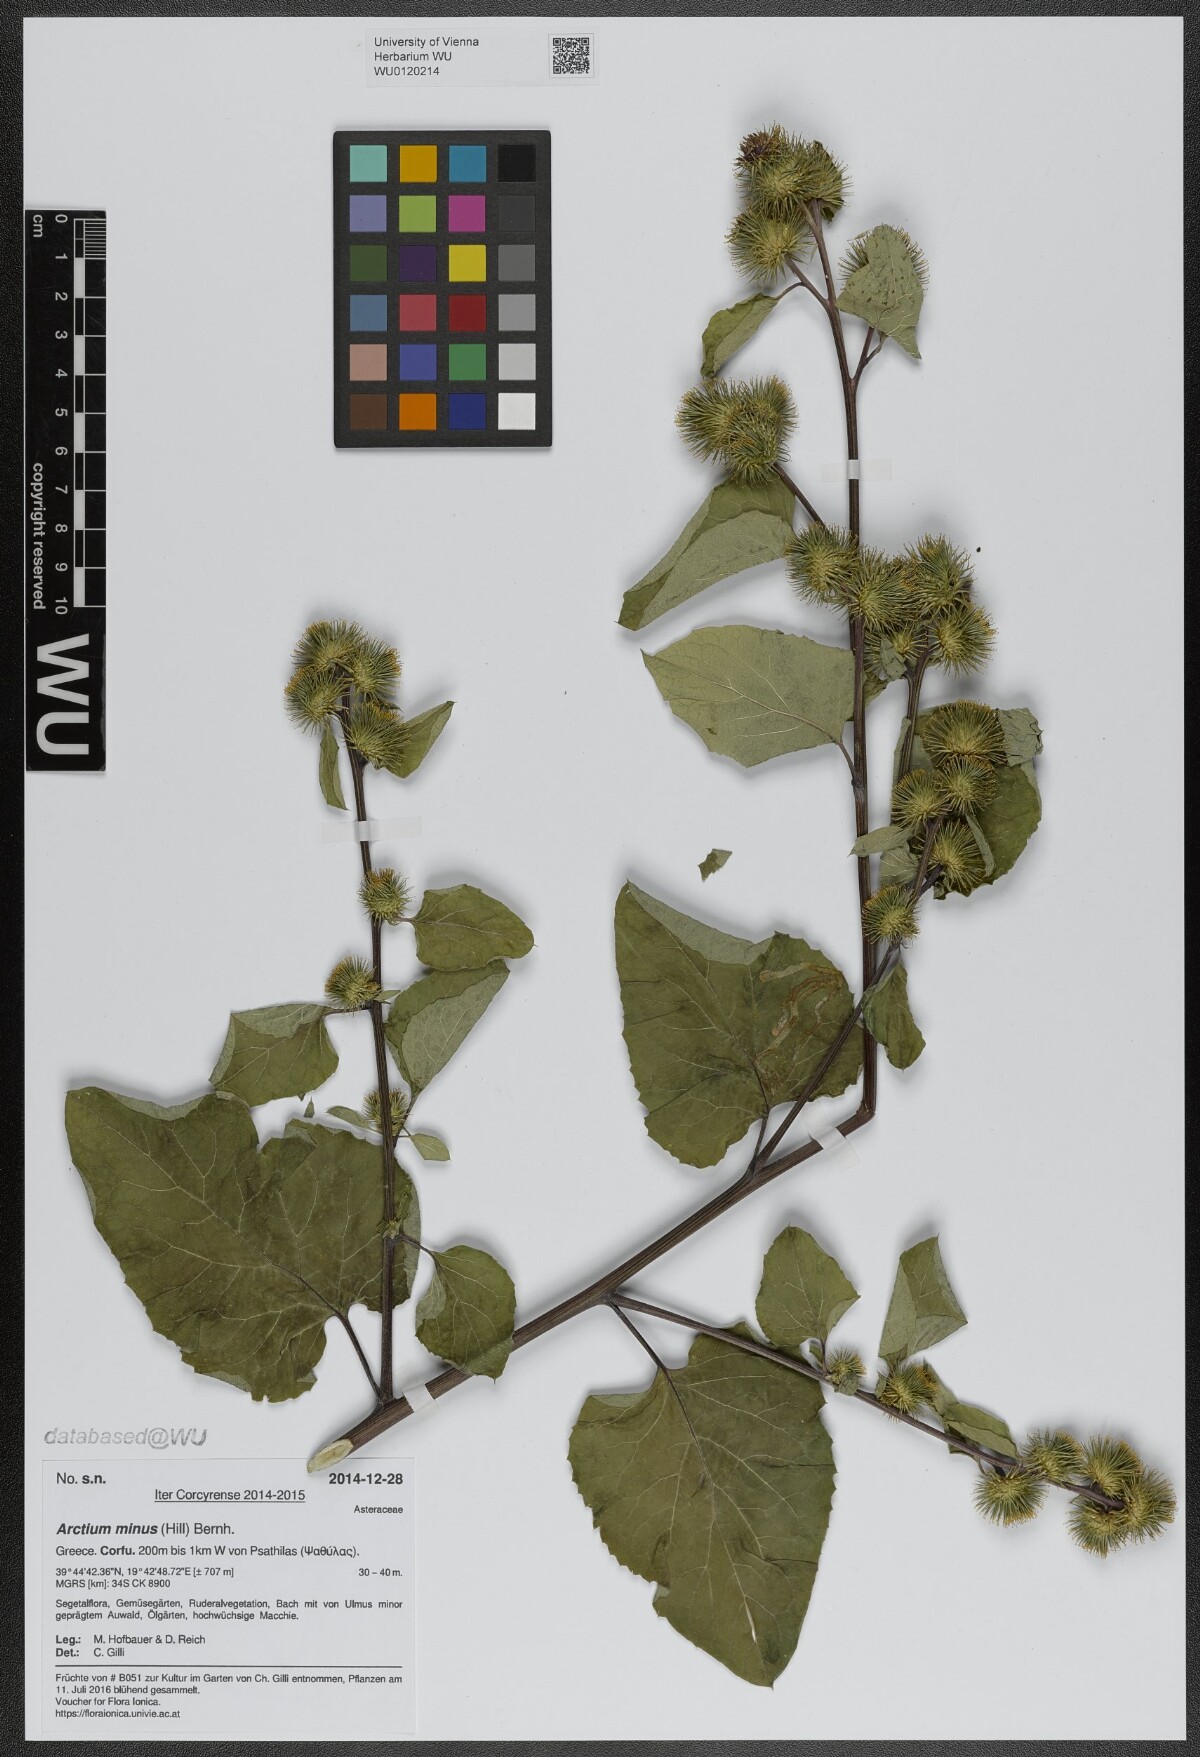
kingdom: Plantae
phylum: Tracheophyta
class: Magnoliopsida
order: Asterales
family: Asteraceae
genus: Arctium
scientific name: Arctium minus
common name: Lesser burdock
